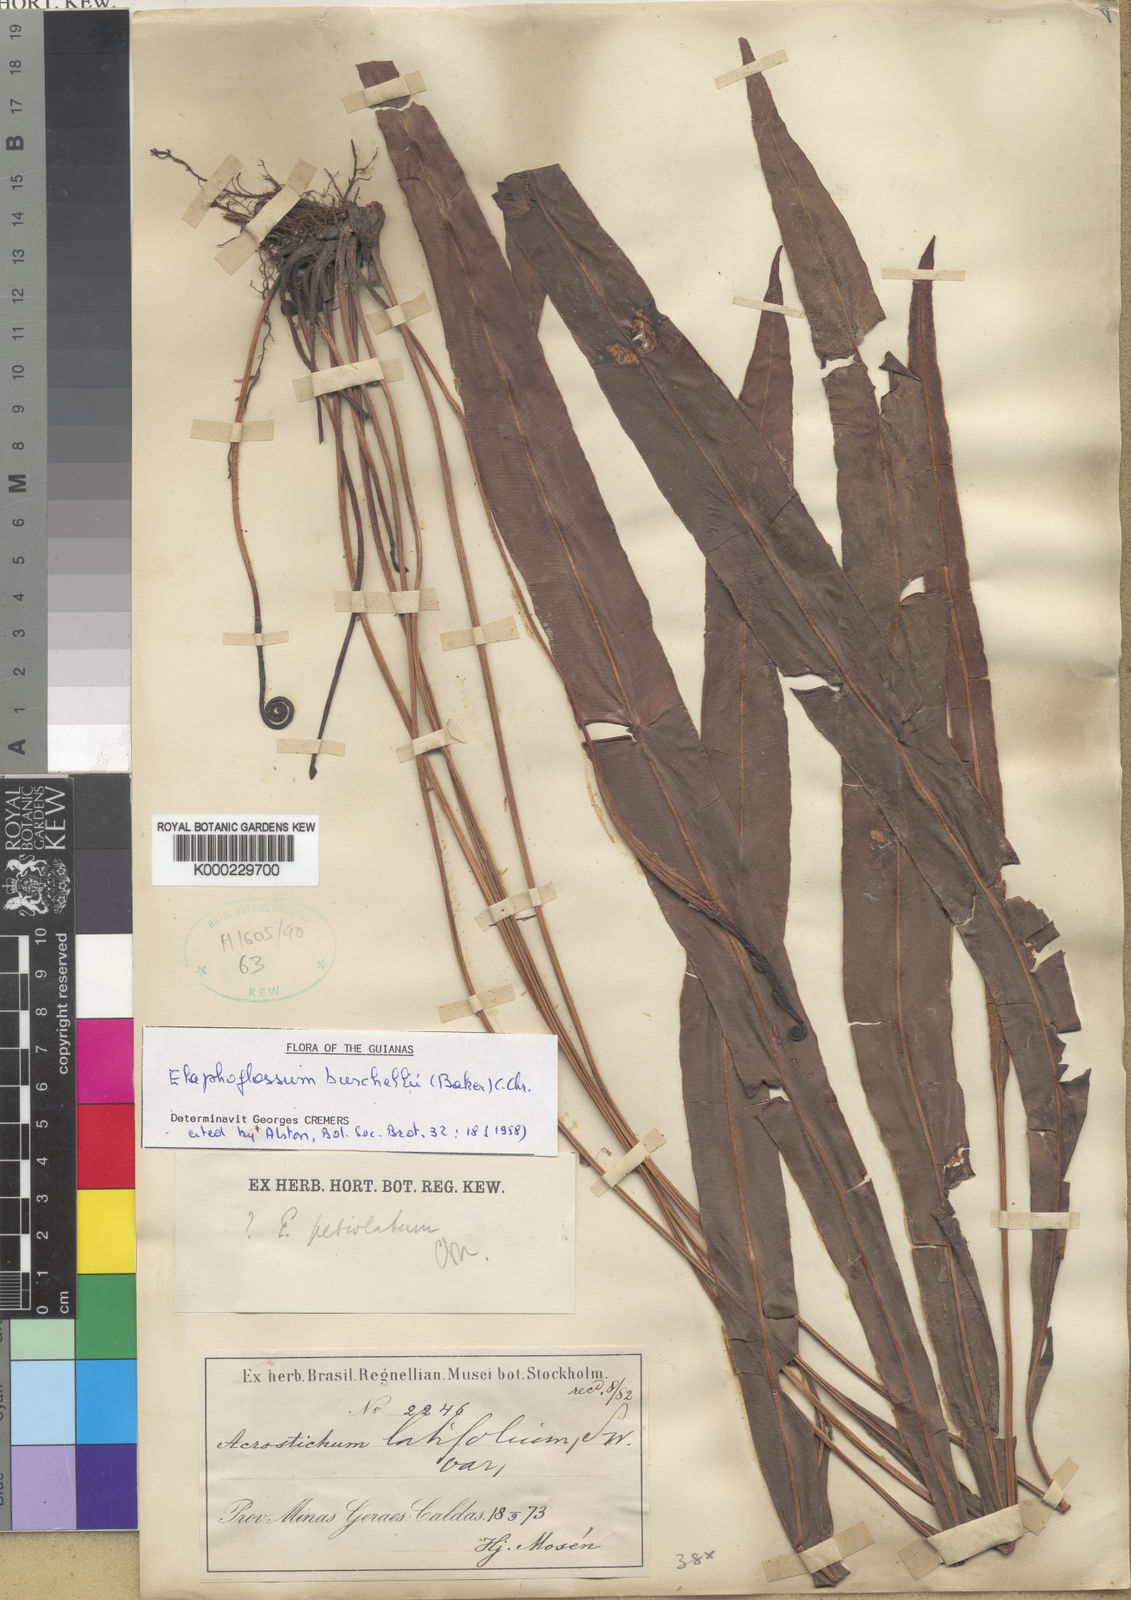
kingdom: Plantae
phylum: Tracheophyta
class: Polypodiopsida
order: Polypodiales
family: Dryopteridaceae
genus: Elaphoglossum
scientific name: Elaphoglossum burchellii
